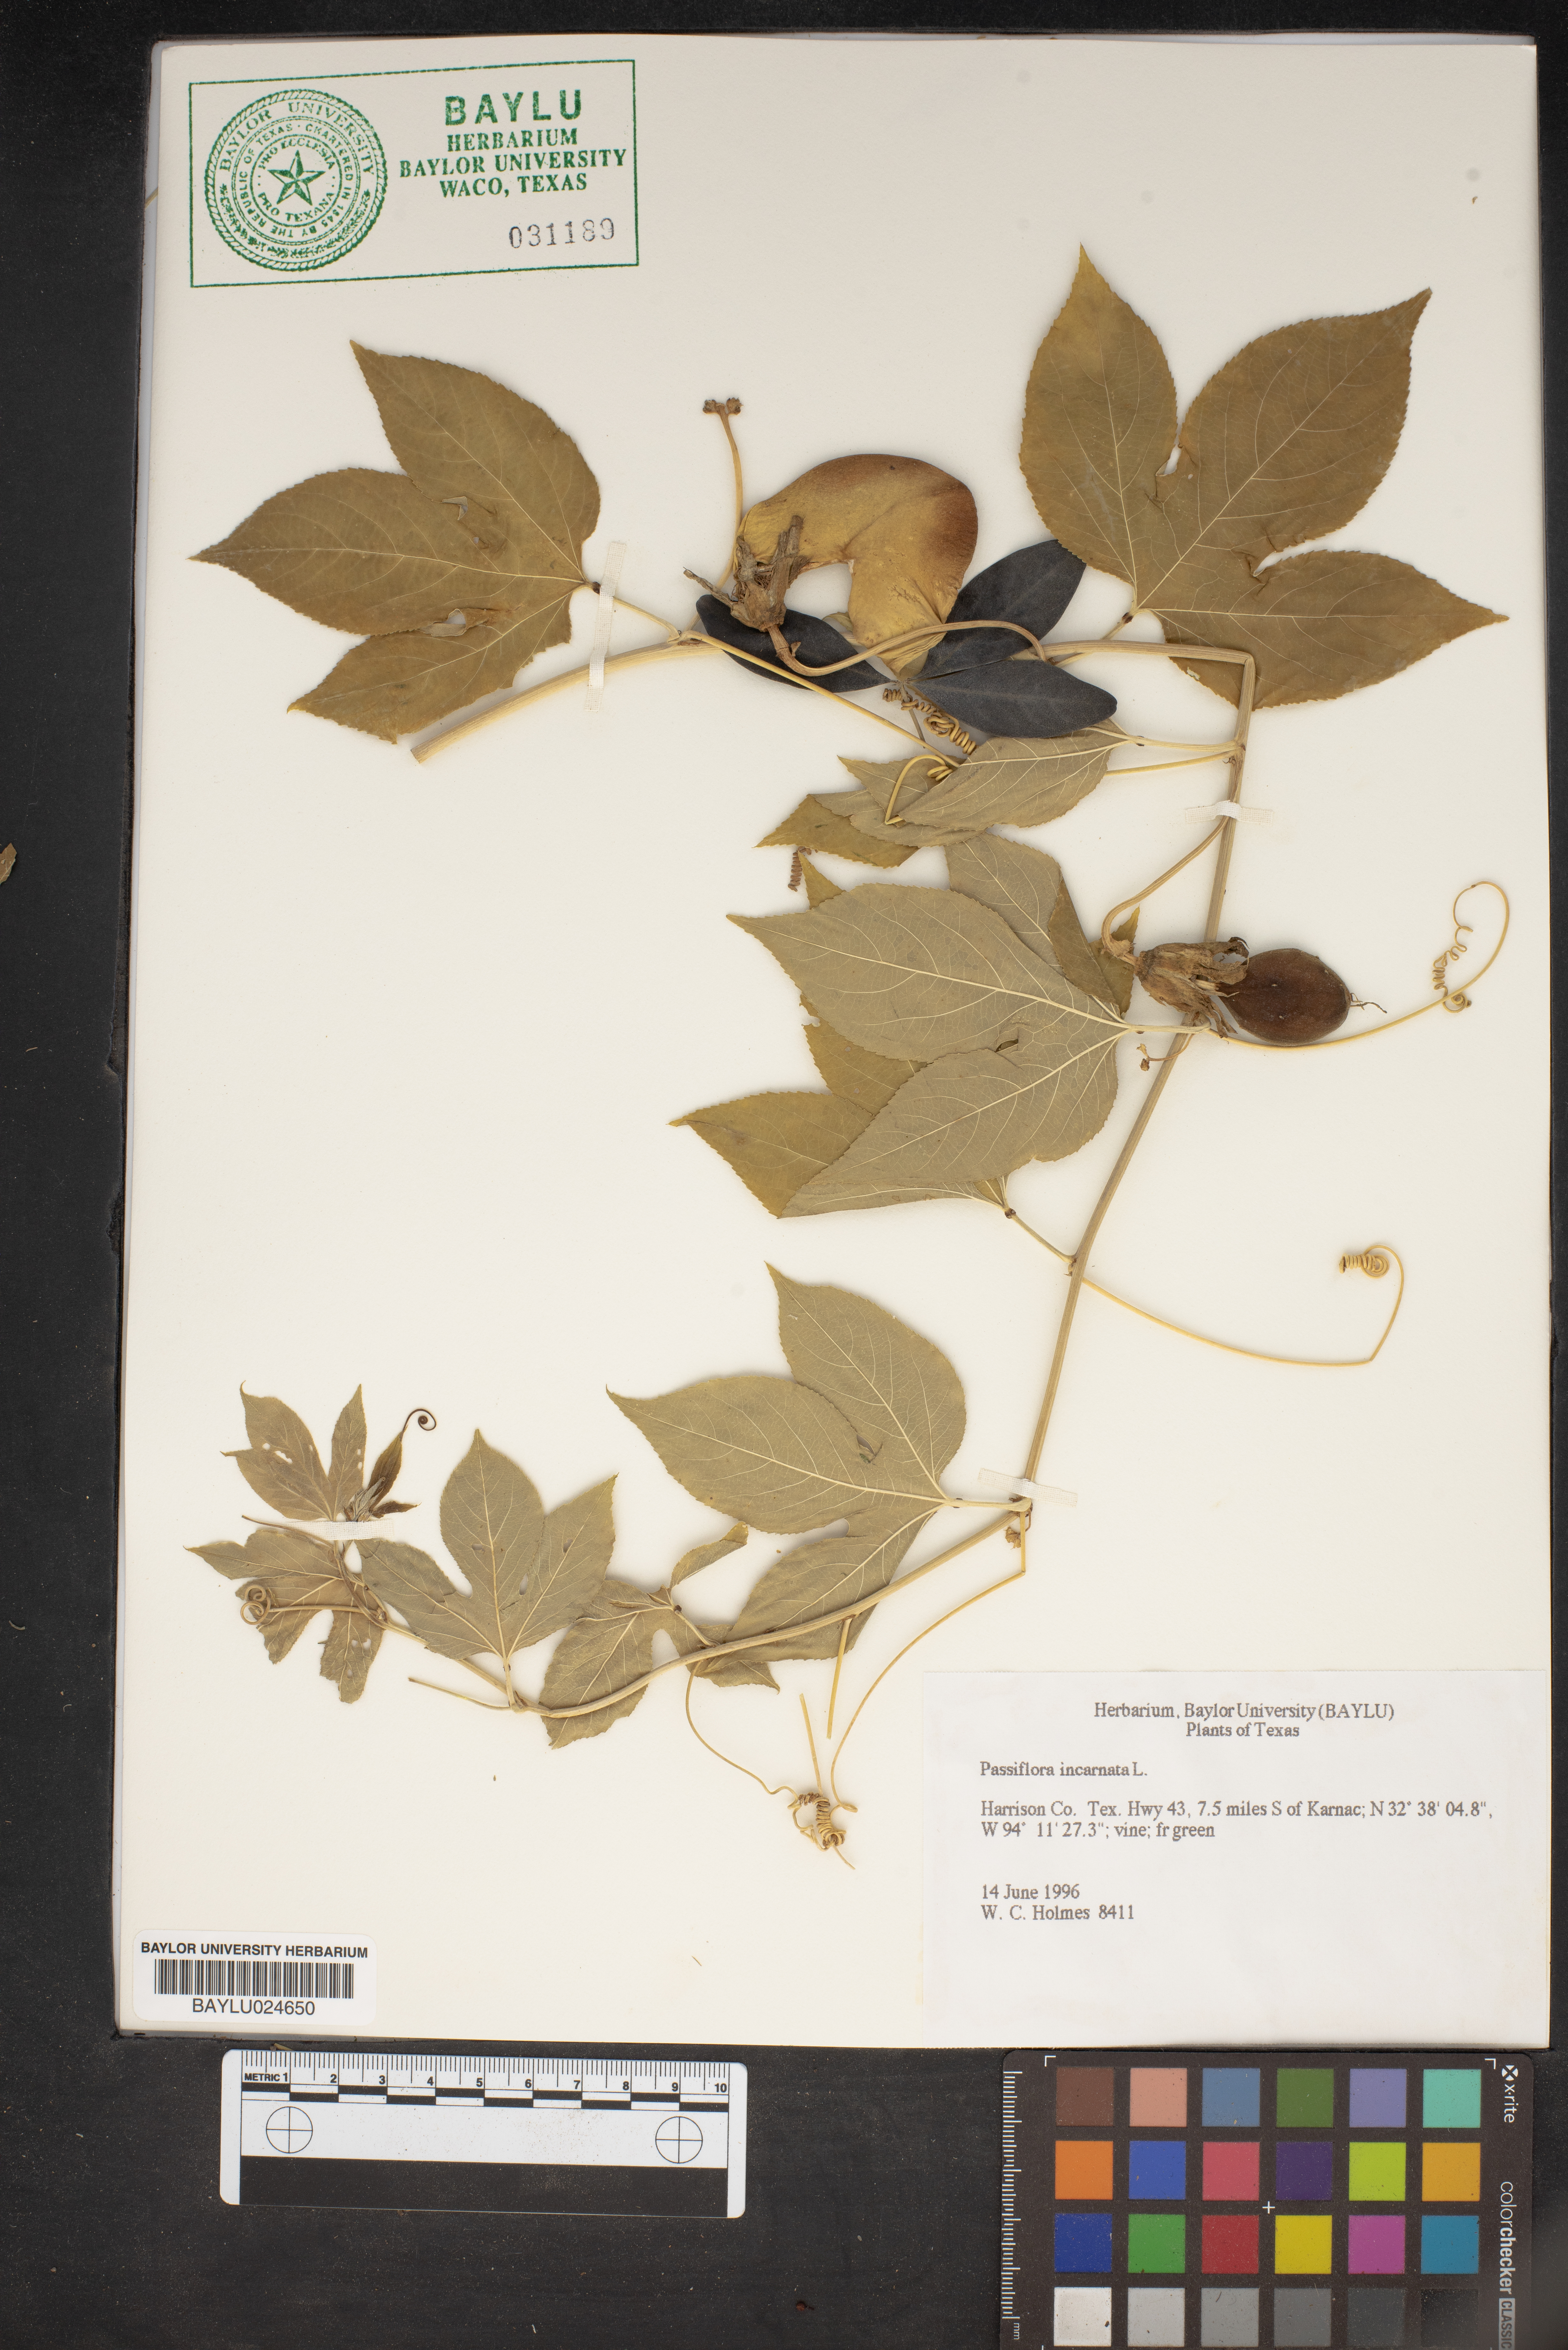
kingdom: Plantae
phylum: Tracheophyta
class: Magnoliopsida
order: Malpighiales
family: Passifloraceae
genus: Passiflora
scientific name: Passiflora incarnata
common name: Apricot-vine
